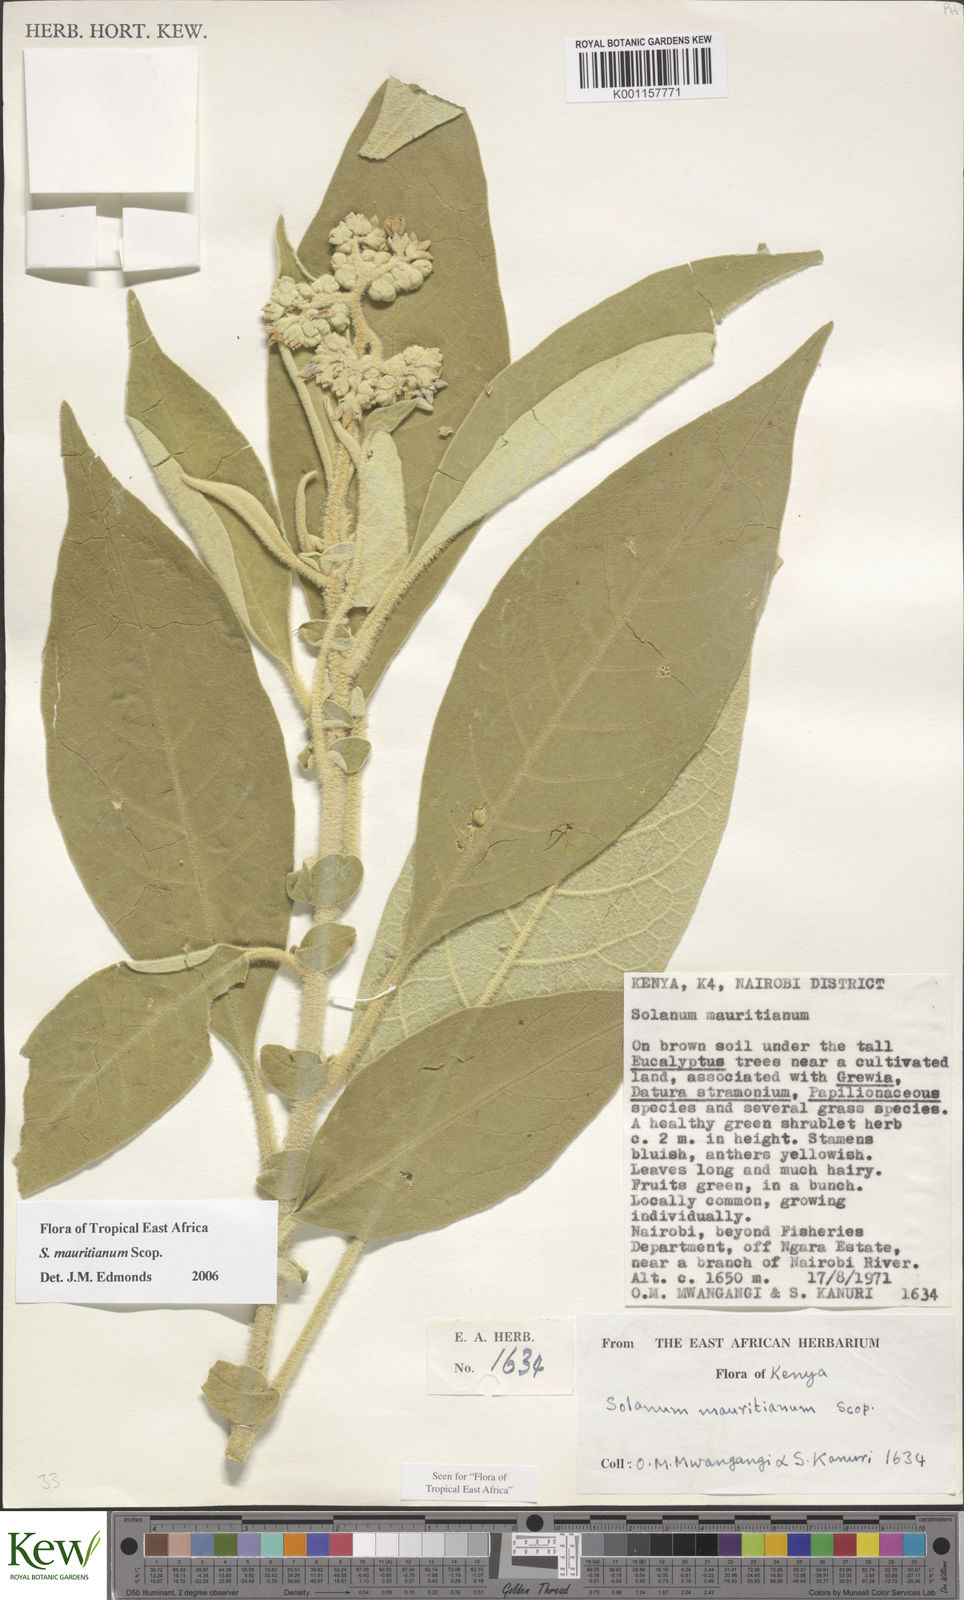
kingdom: Plantae
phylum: Tracheophyta
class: Magnoliopsida
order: Solanales
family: Solanaceae
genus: Solanum
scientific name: Solanum mauritianum
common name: Earleaf nightshade
